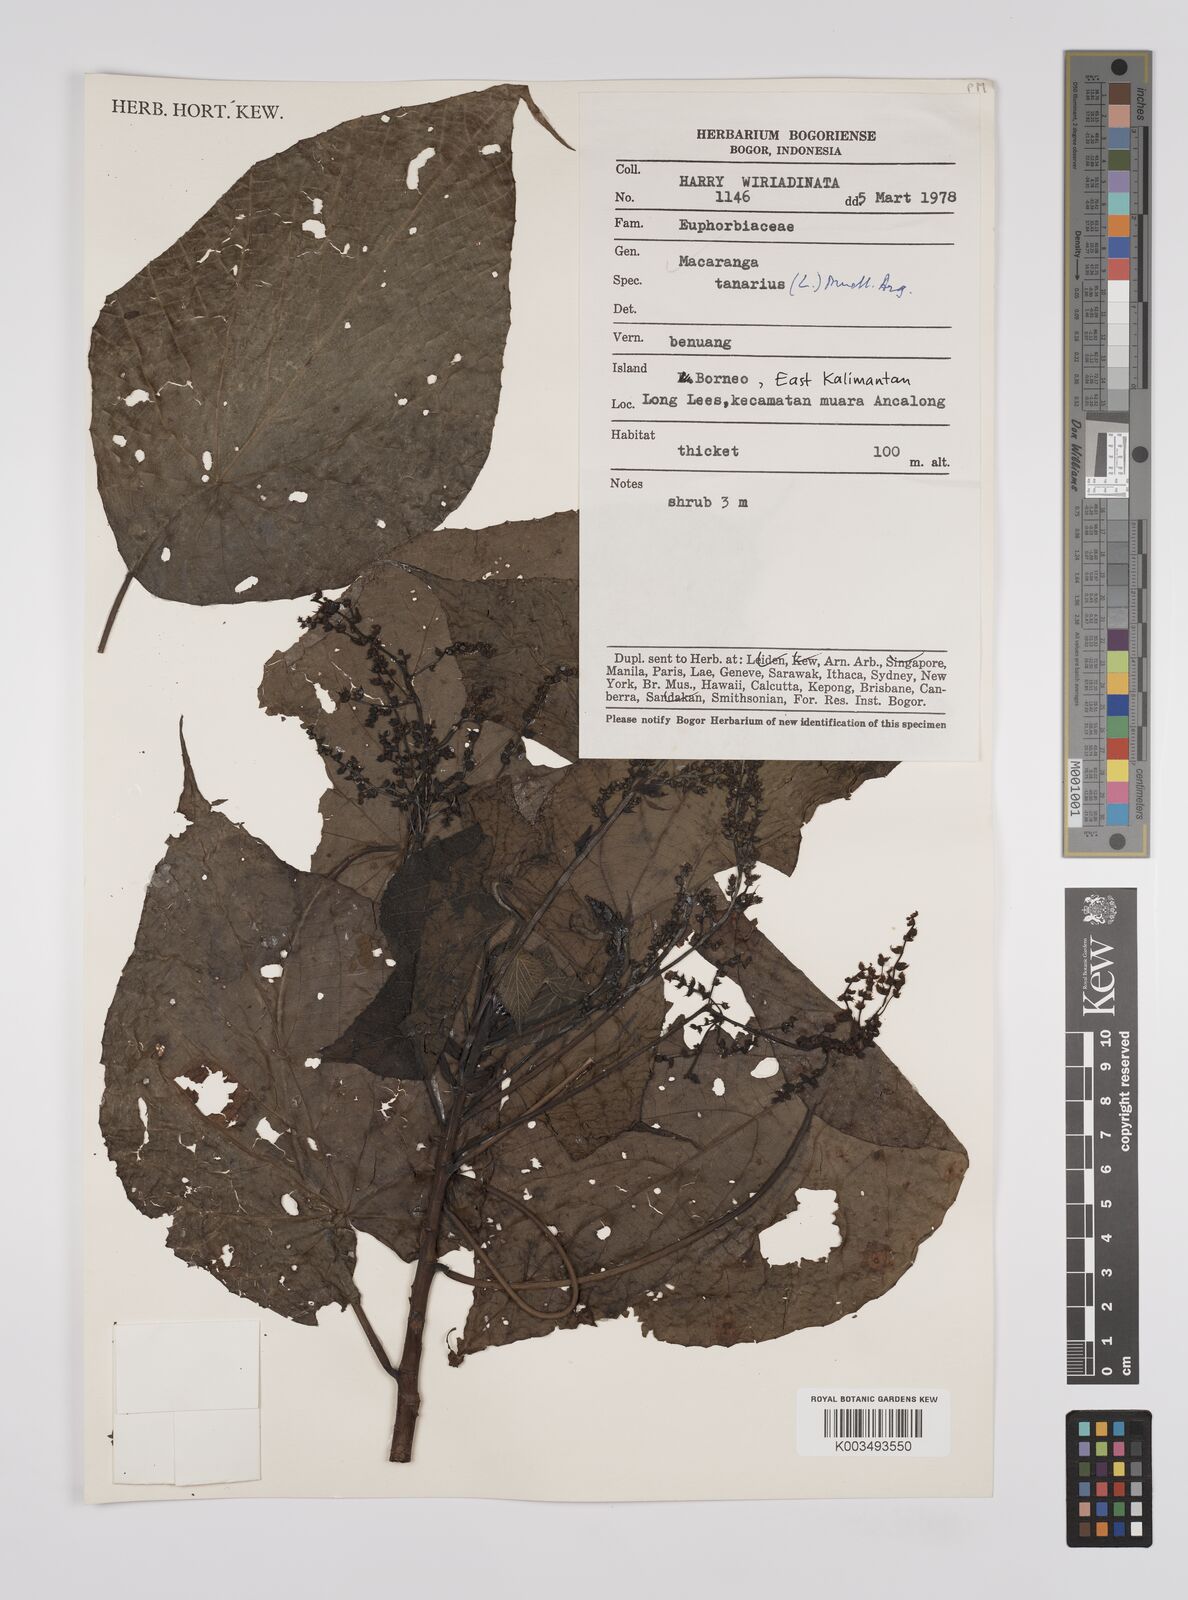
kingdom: Plantae
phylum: Tracheophyta
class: Magnoliopsida
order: Malpighiales
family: Euphorbiaceae
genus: Macaranga
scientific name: Macaranga tanarius
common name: Parasol leaf tree
